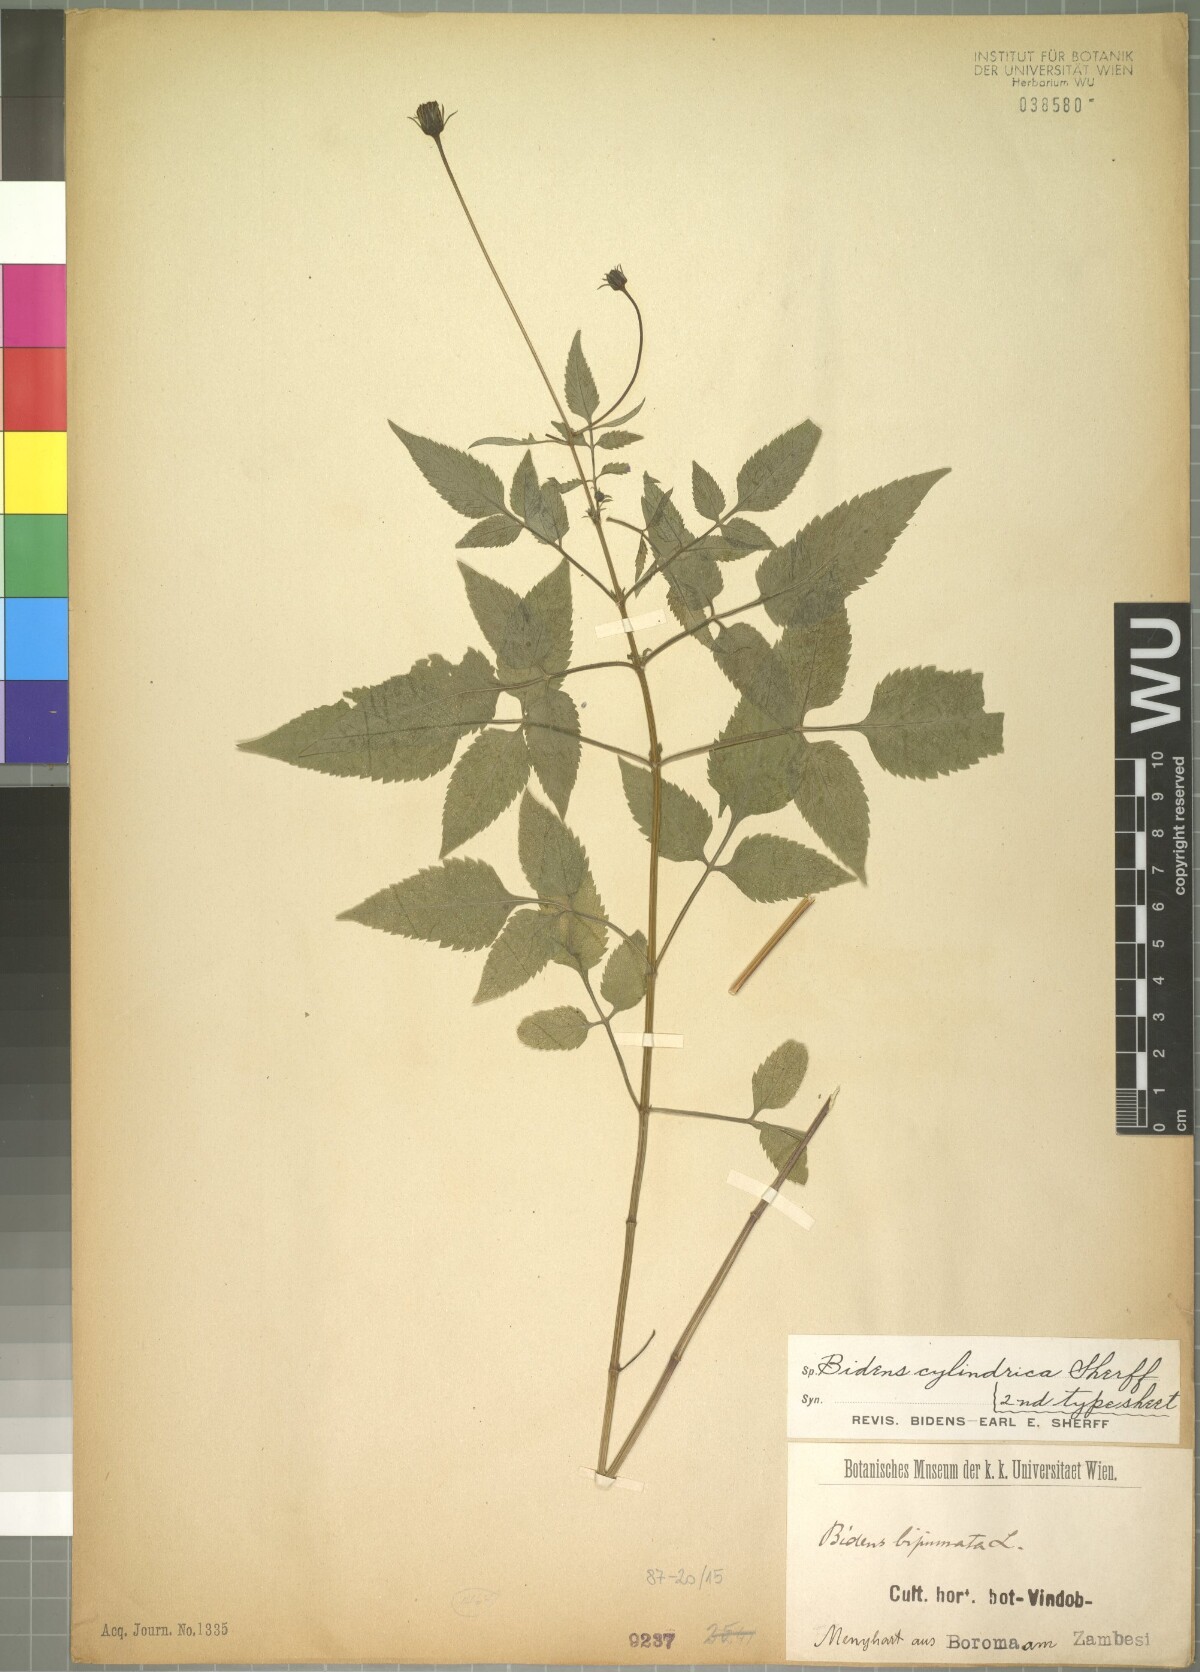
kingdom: Plantae
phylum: Tracheophyta
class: Magnoliopsida
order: Asterales
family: Asteraceae
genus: Bidens
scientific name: Bidens biternata
